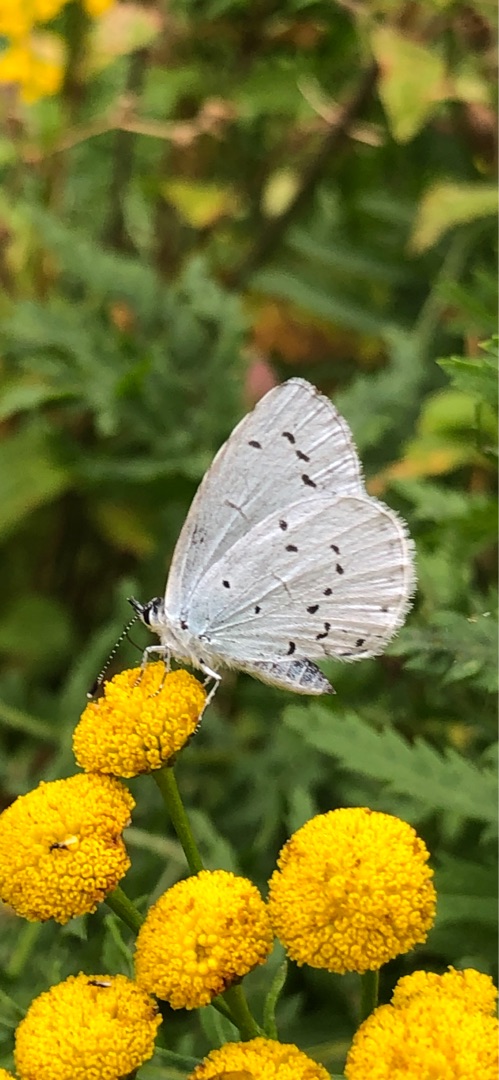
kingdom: Animalia
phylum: Arthropoda
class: Insecta
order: Lepidoptera
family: Lycaenidae
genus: Celastrina
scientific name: Celastrina argiolus
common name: Skovblåfugl
